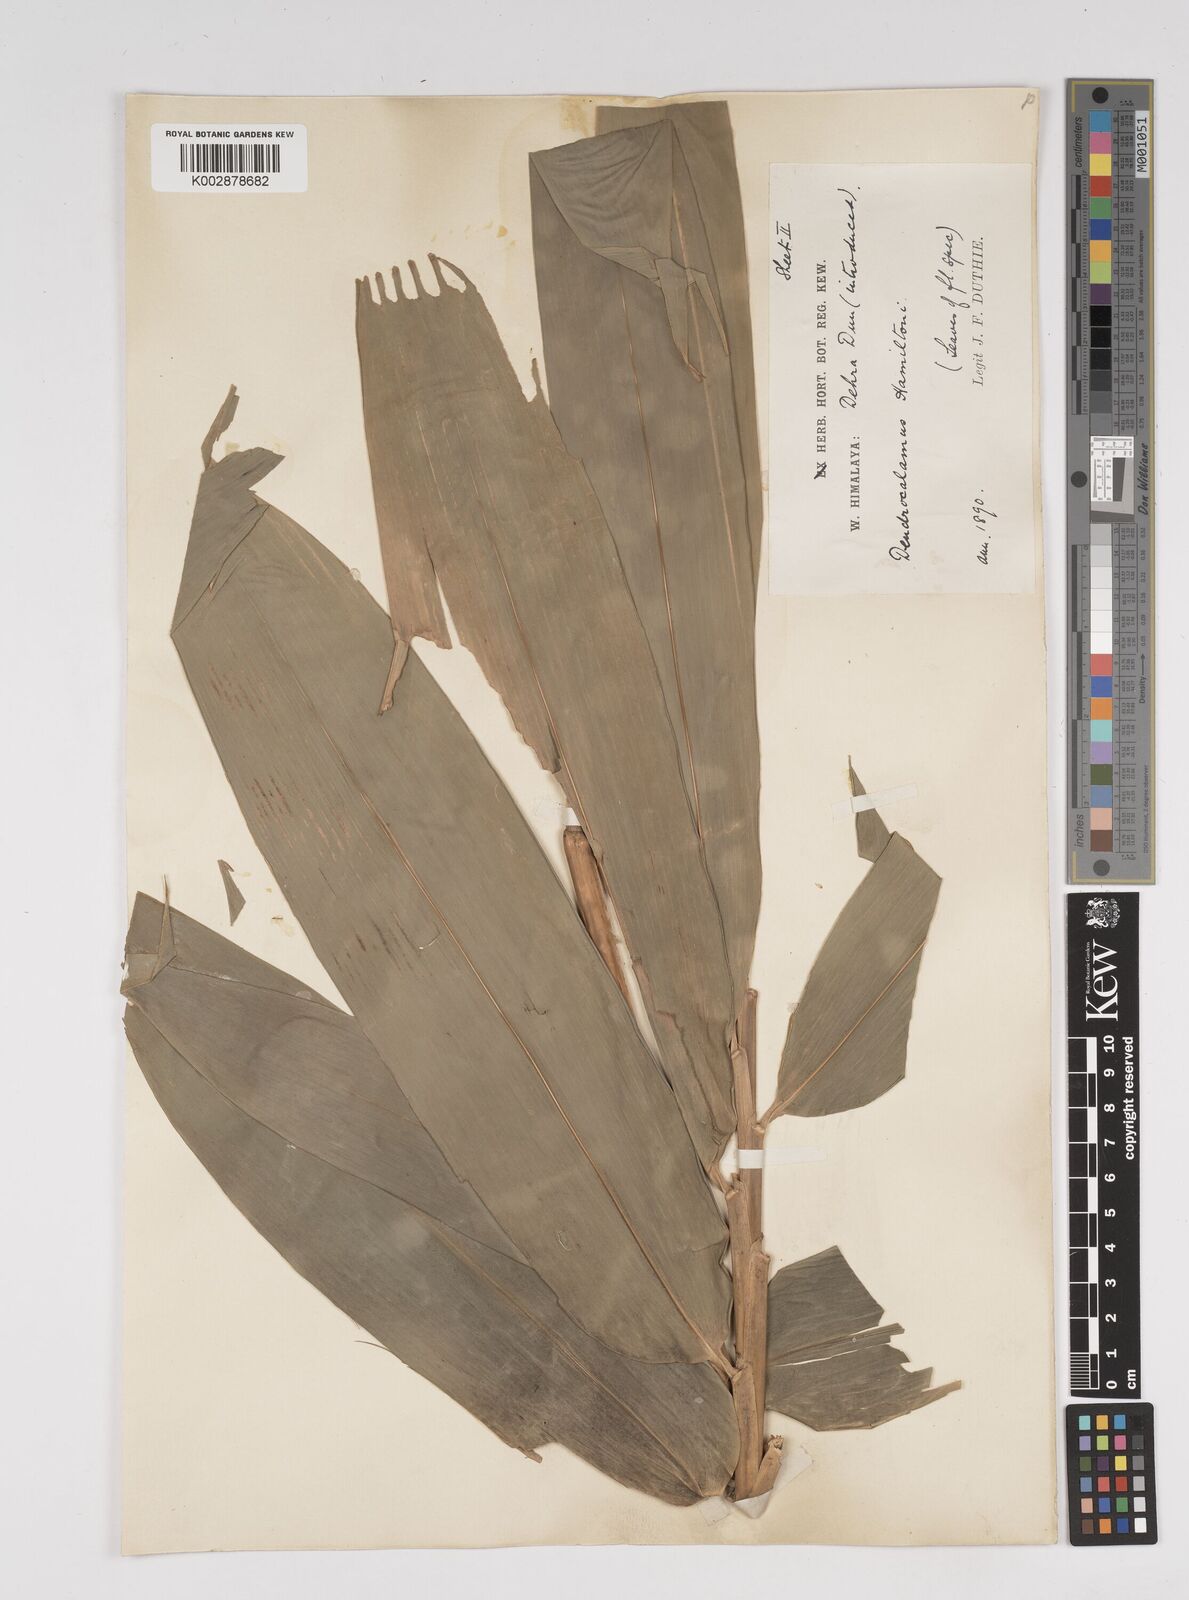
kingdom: Plantae
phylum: Tracheophyta
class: Liliopsida
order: Poales
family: Poaceae
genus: Dendrocalamus
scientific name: Dendrocalamus hamiltonii
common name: Tama bamboo
